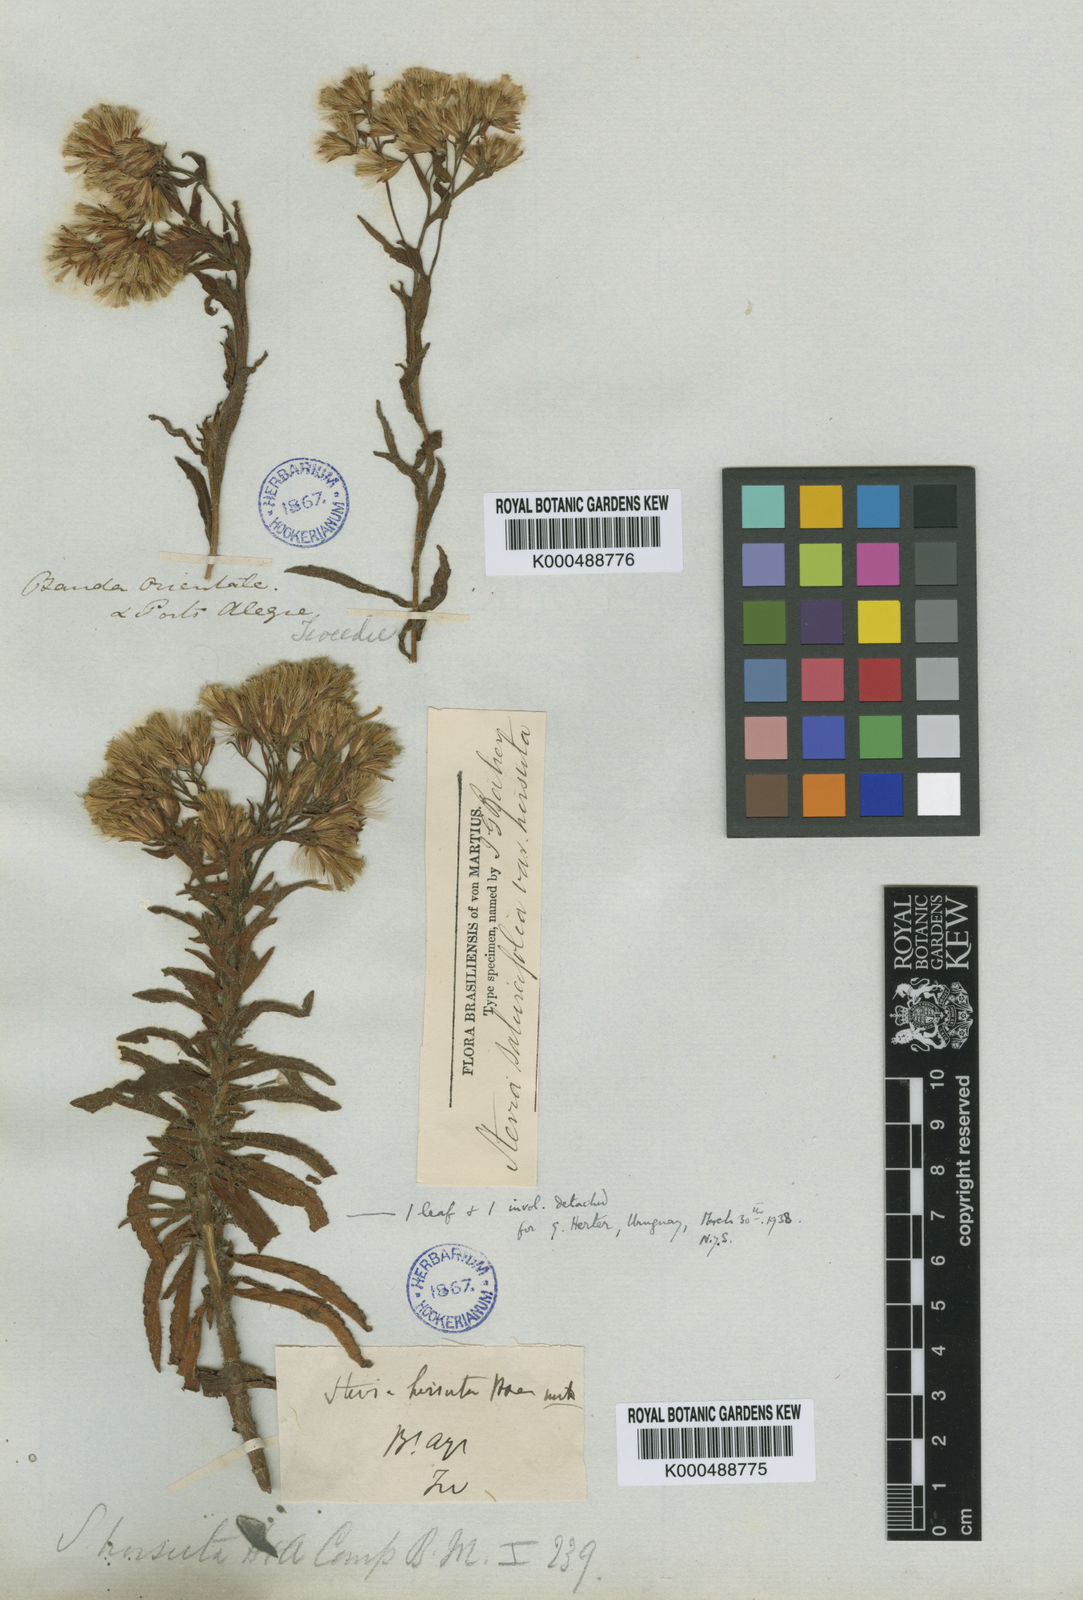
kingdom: Plantae
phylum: Tracheophyta
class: Magnoliopsida
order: Asterales
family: Asteraceae
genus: Stevia
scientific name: Stevia multiaristata
